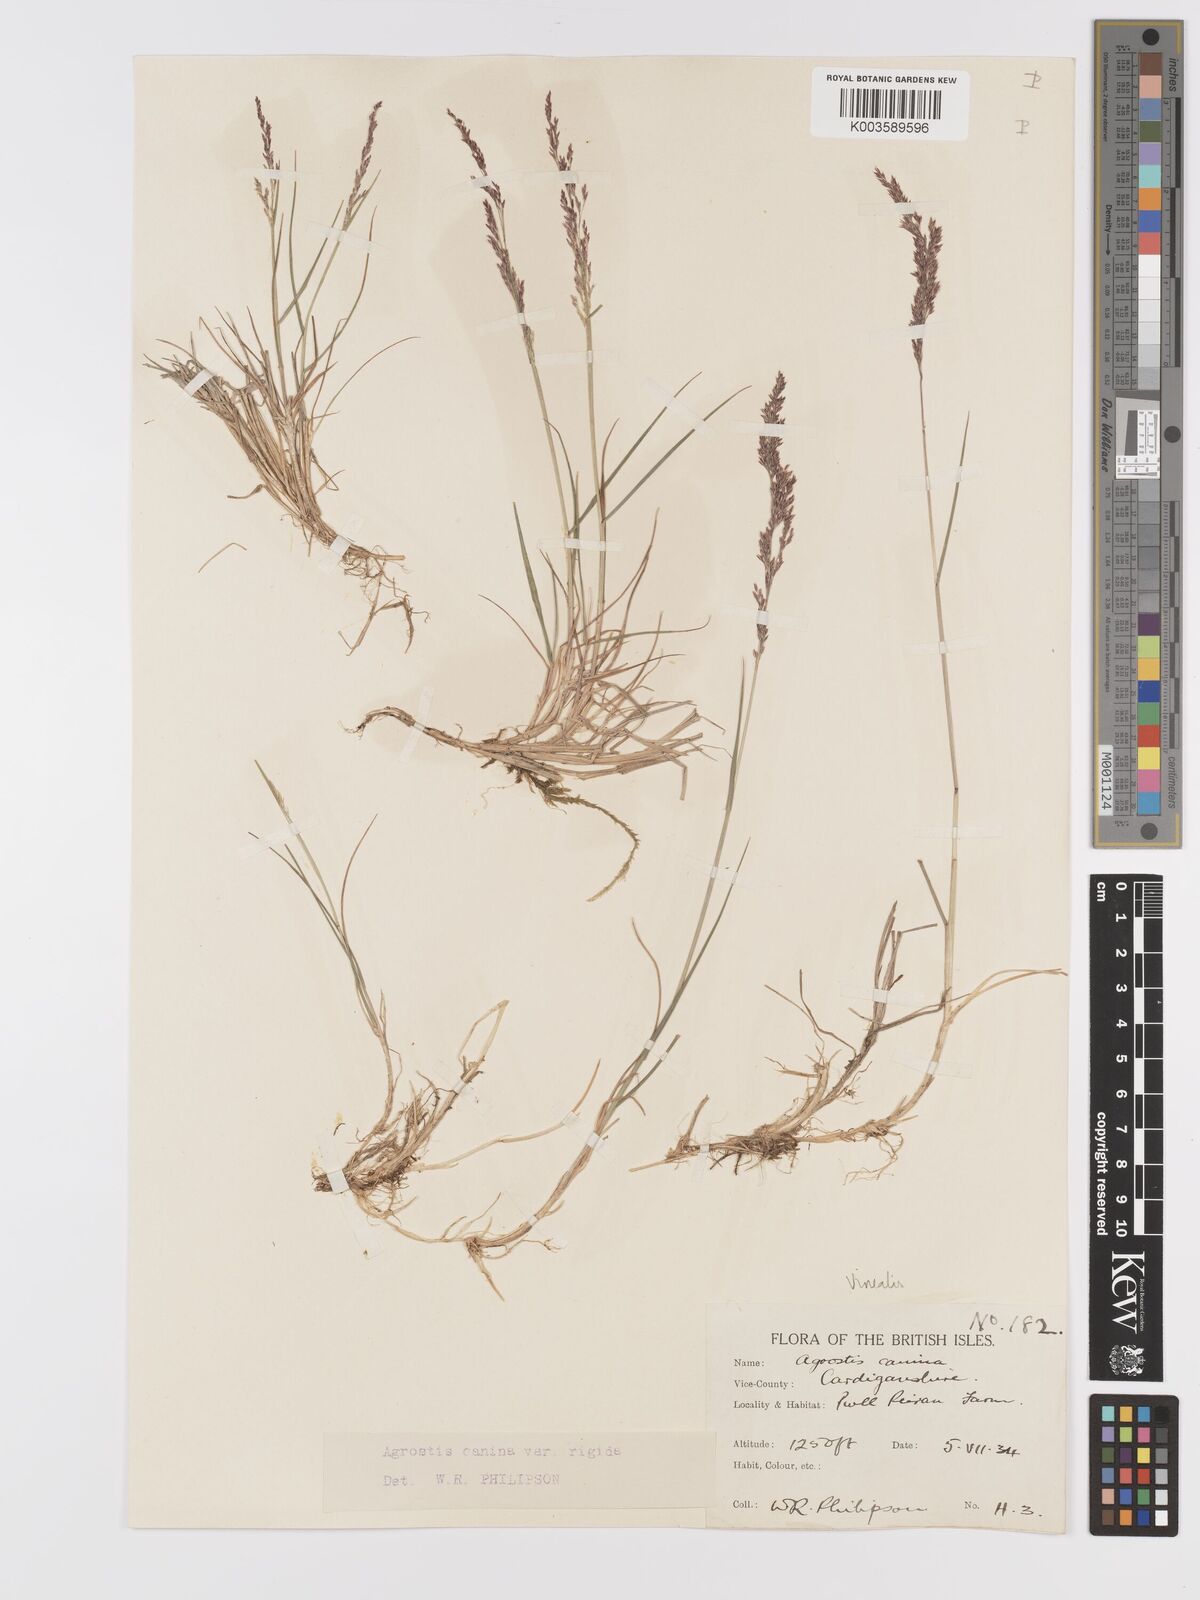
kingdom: Plantae
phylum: Tracheophyta
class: Liliopsida
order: Poales
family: Poaceae
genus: Agrostis
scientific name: Agrostis
